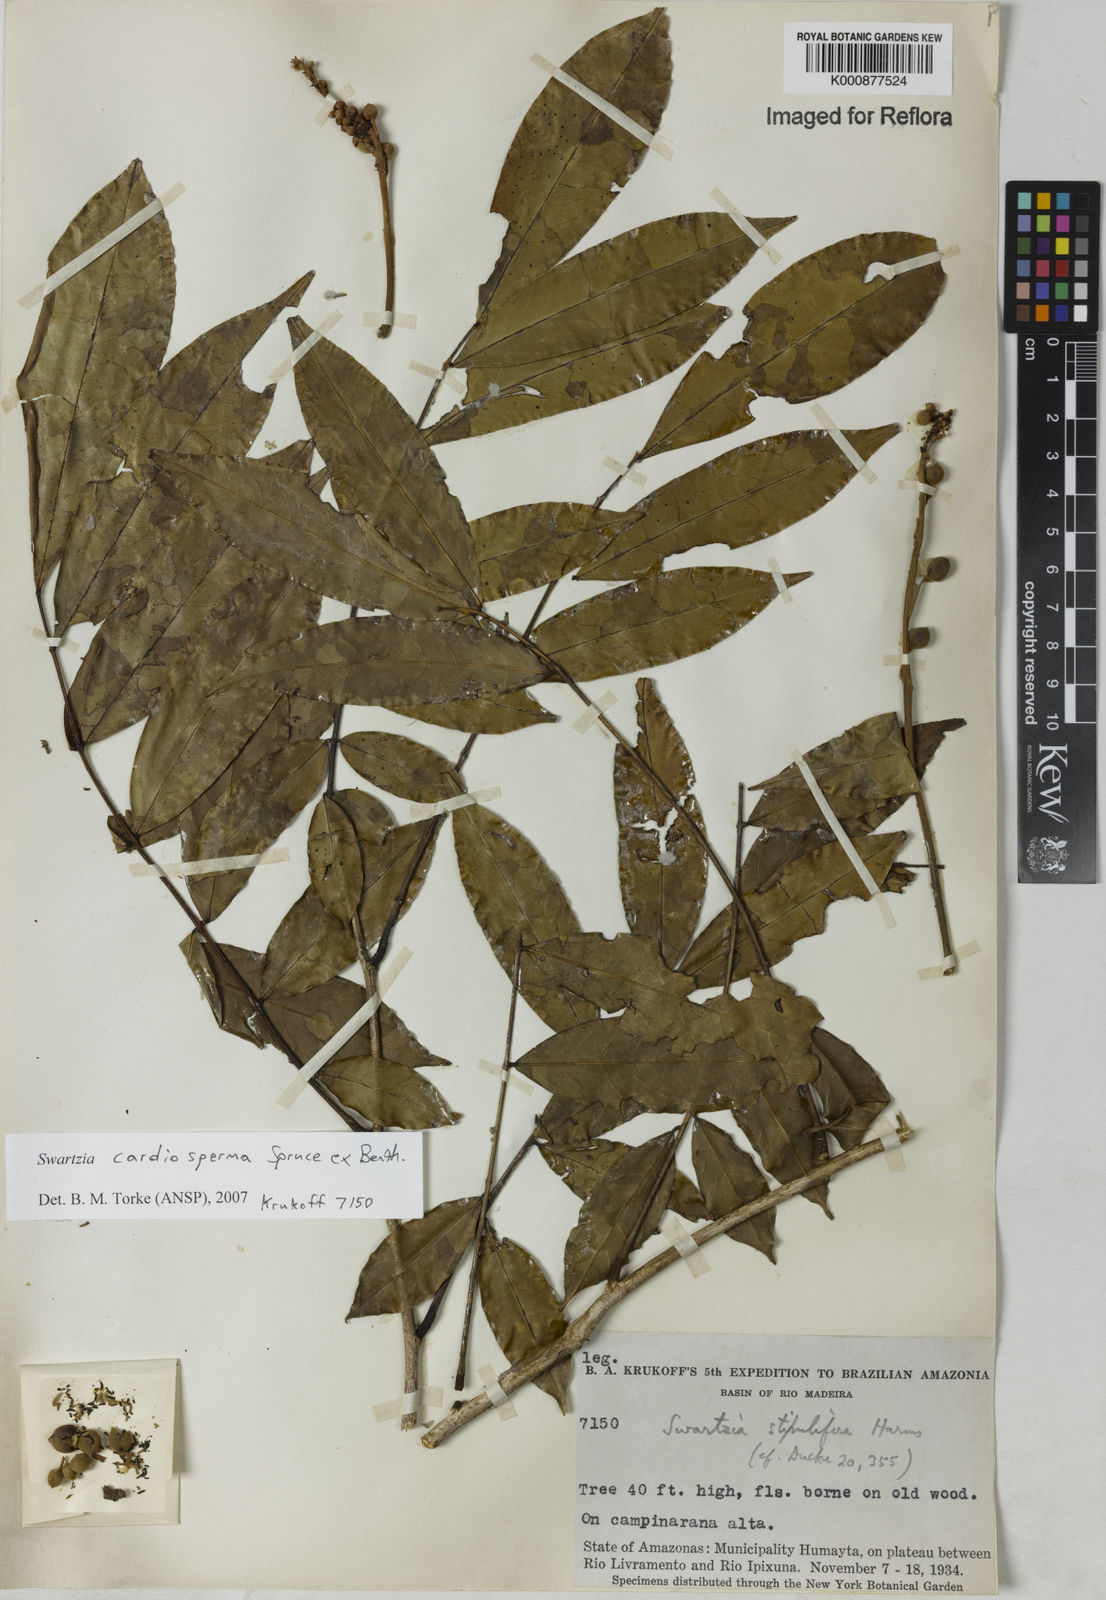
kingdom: Plantae
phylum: Tracheophyta
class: Magnoliopsida
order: Fabales
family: Fabaceae
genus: Swartzia
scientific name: Swartzia cardiosperma
